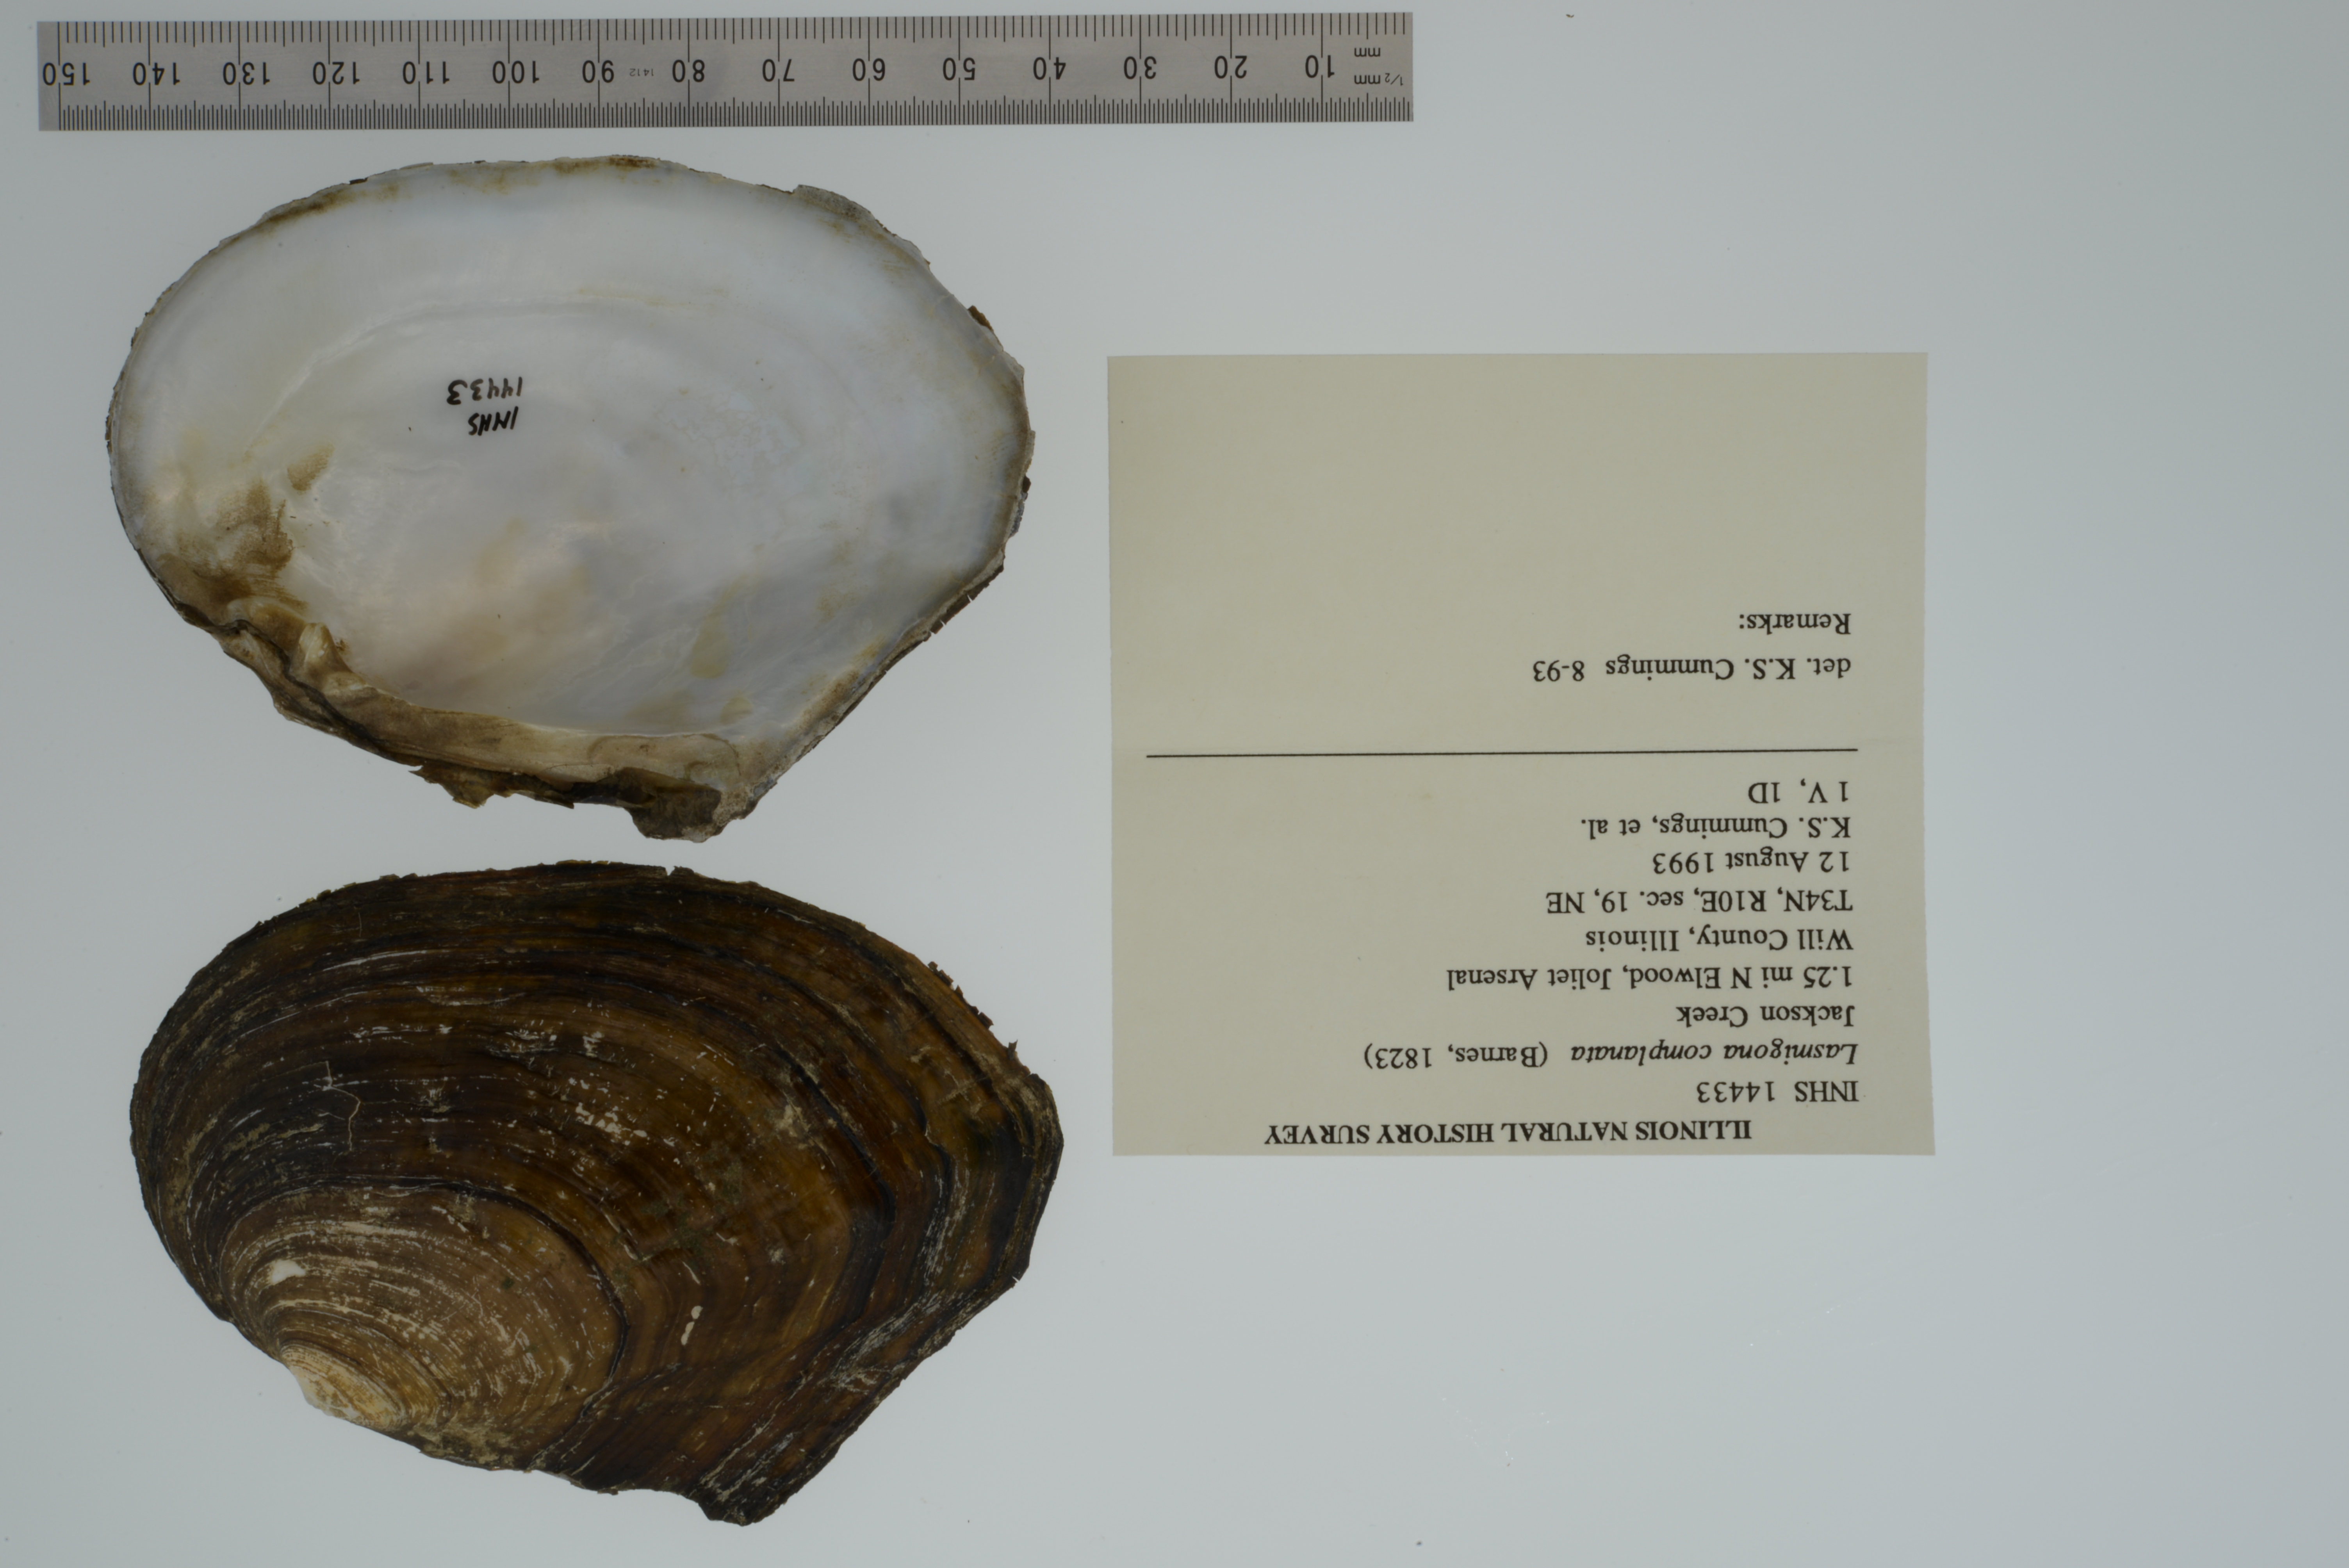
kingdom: Animalia
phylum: Mollusca
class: Bivalvia
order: Unionida
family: Unionidae
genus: Lasmigona
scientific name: Lasmigona complanata
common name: White heelsplitter
